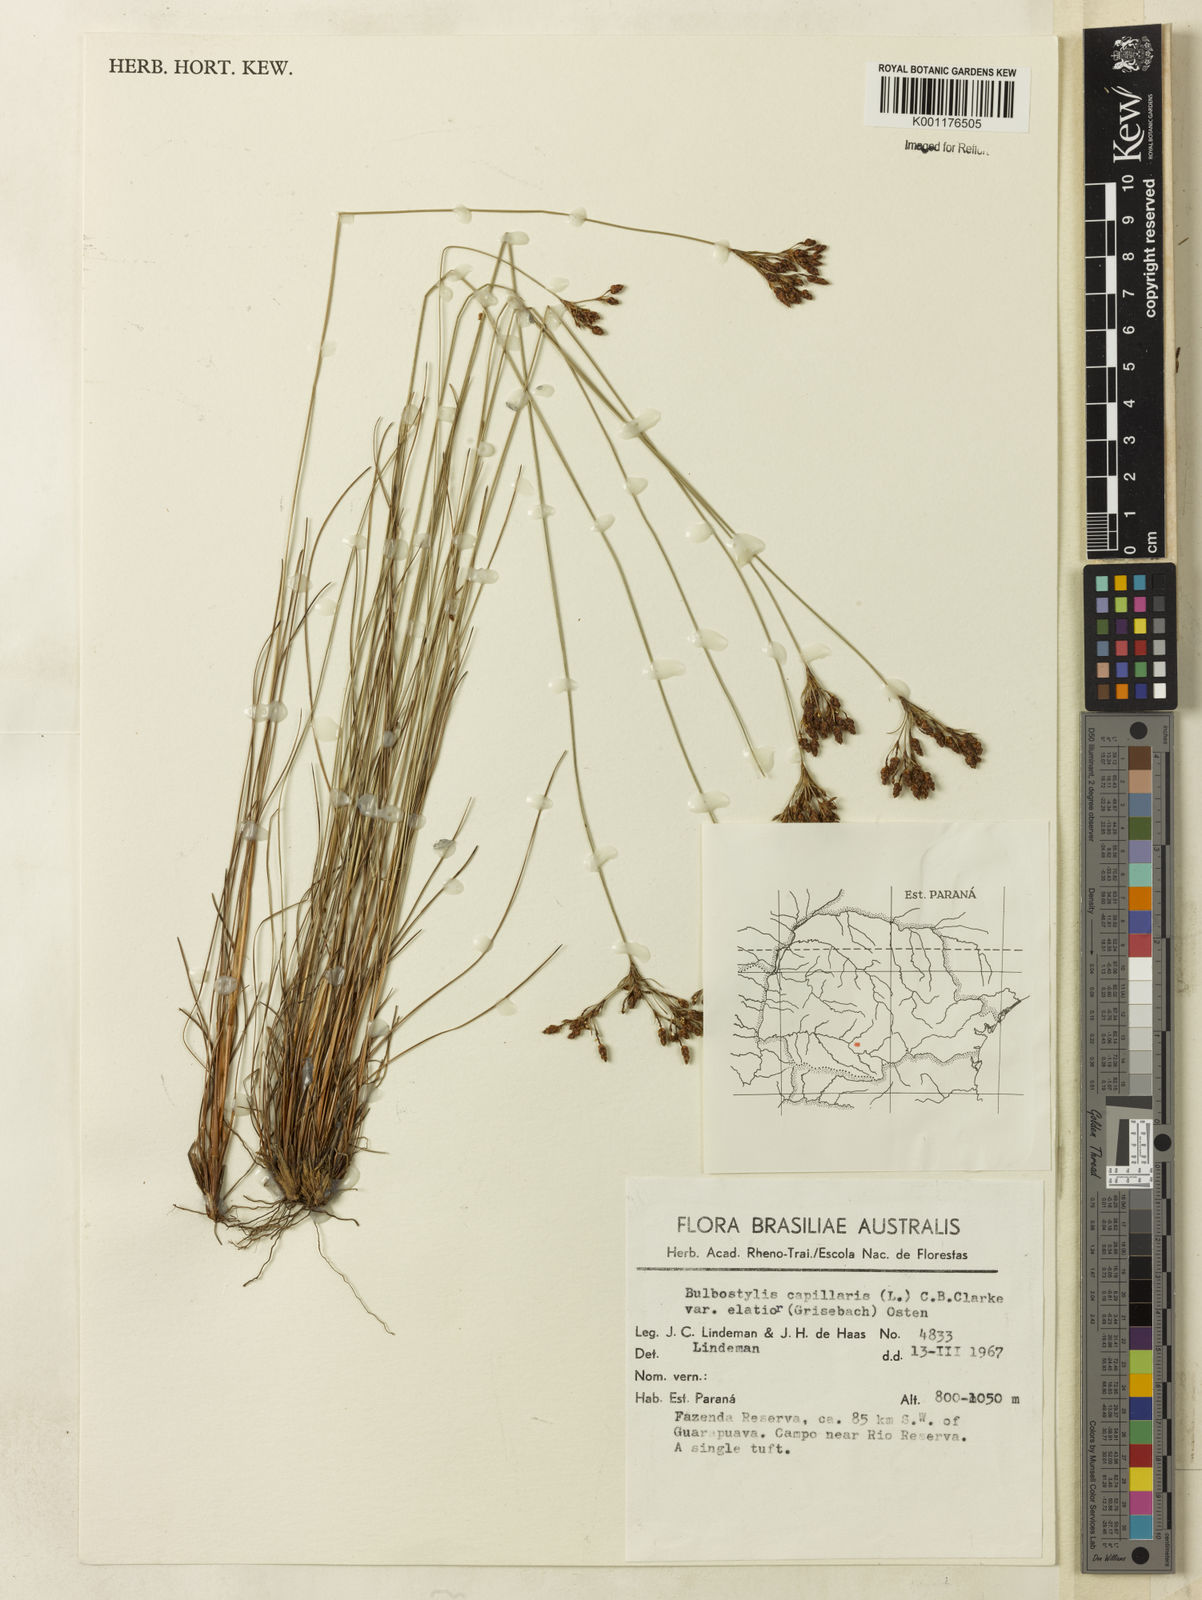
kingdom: Plantae
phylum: Tracheophyta
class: Liliopsida
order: Poales
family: Cyperaceae
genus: Bulbostylis
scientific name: Bulbostylis communis
